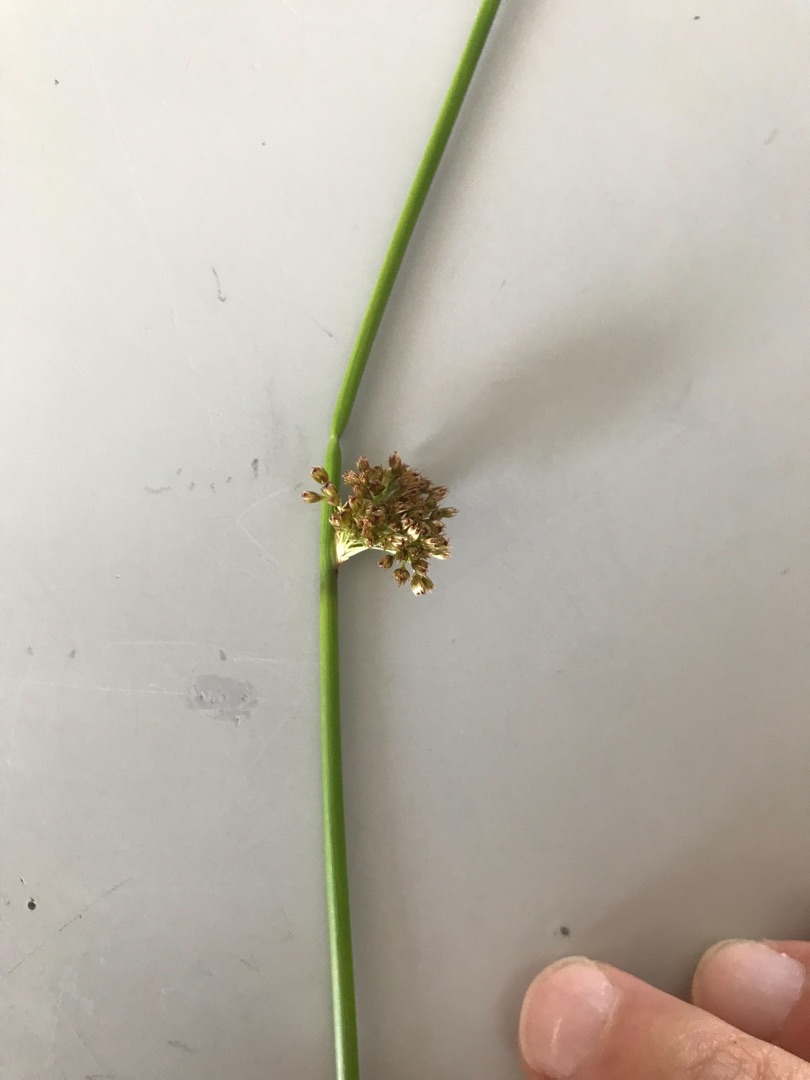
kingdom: Plantae
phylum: Tracheophyta
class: Liliopsida
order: Poales
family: Juncaceae
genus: Juncus
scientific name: Juncus effusus
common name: Lyse-siv
